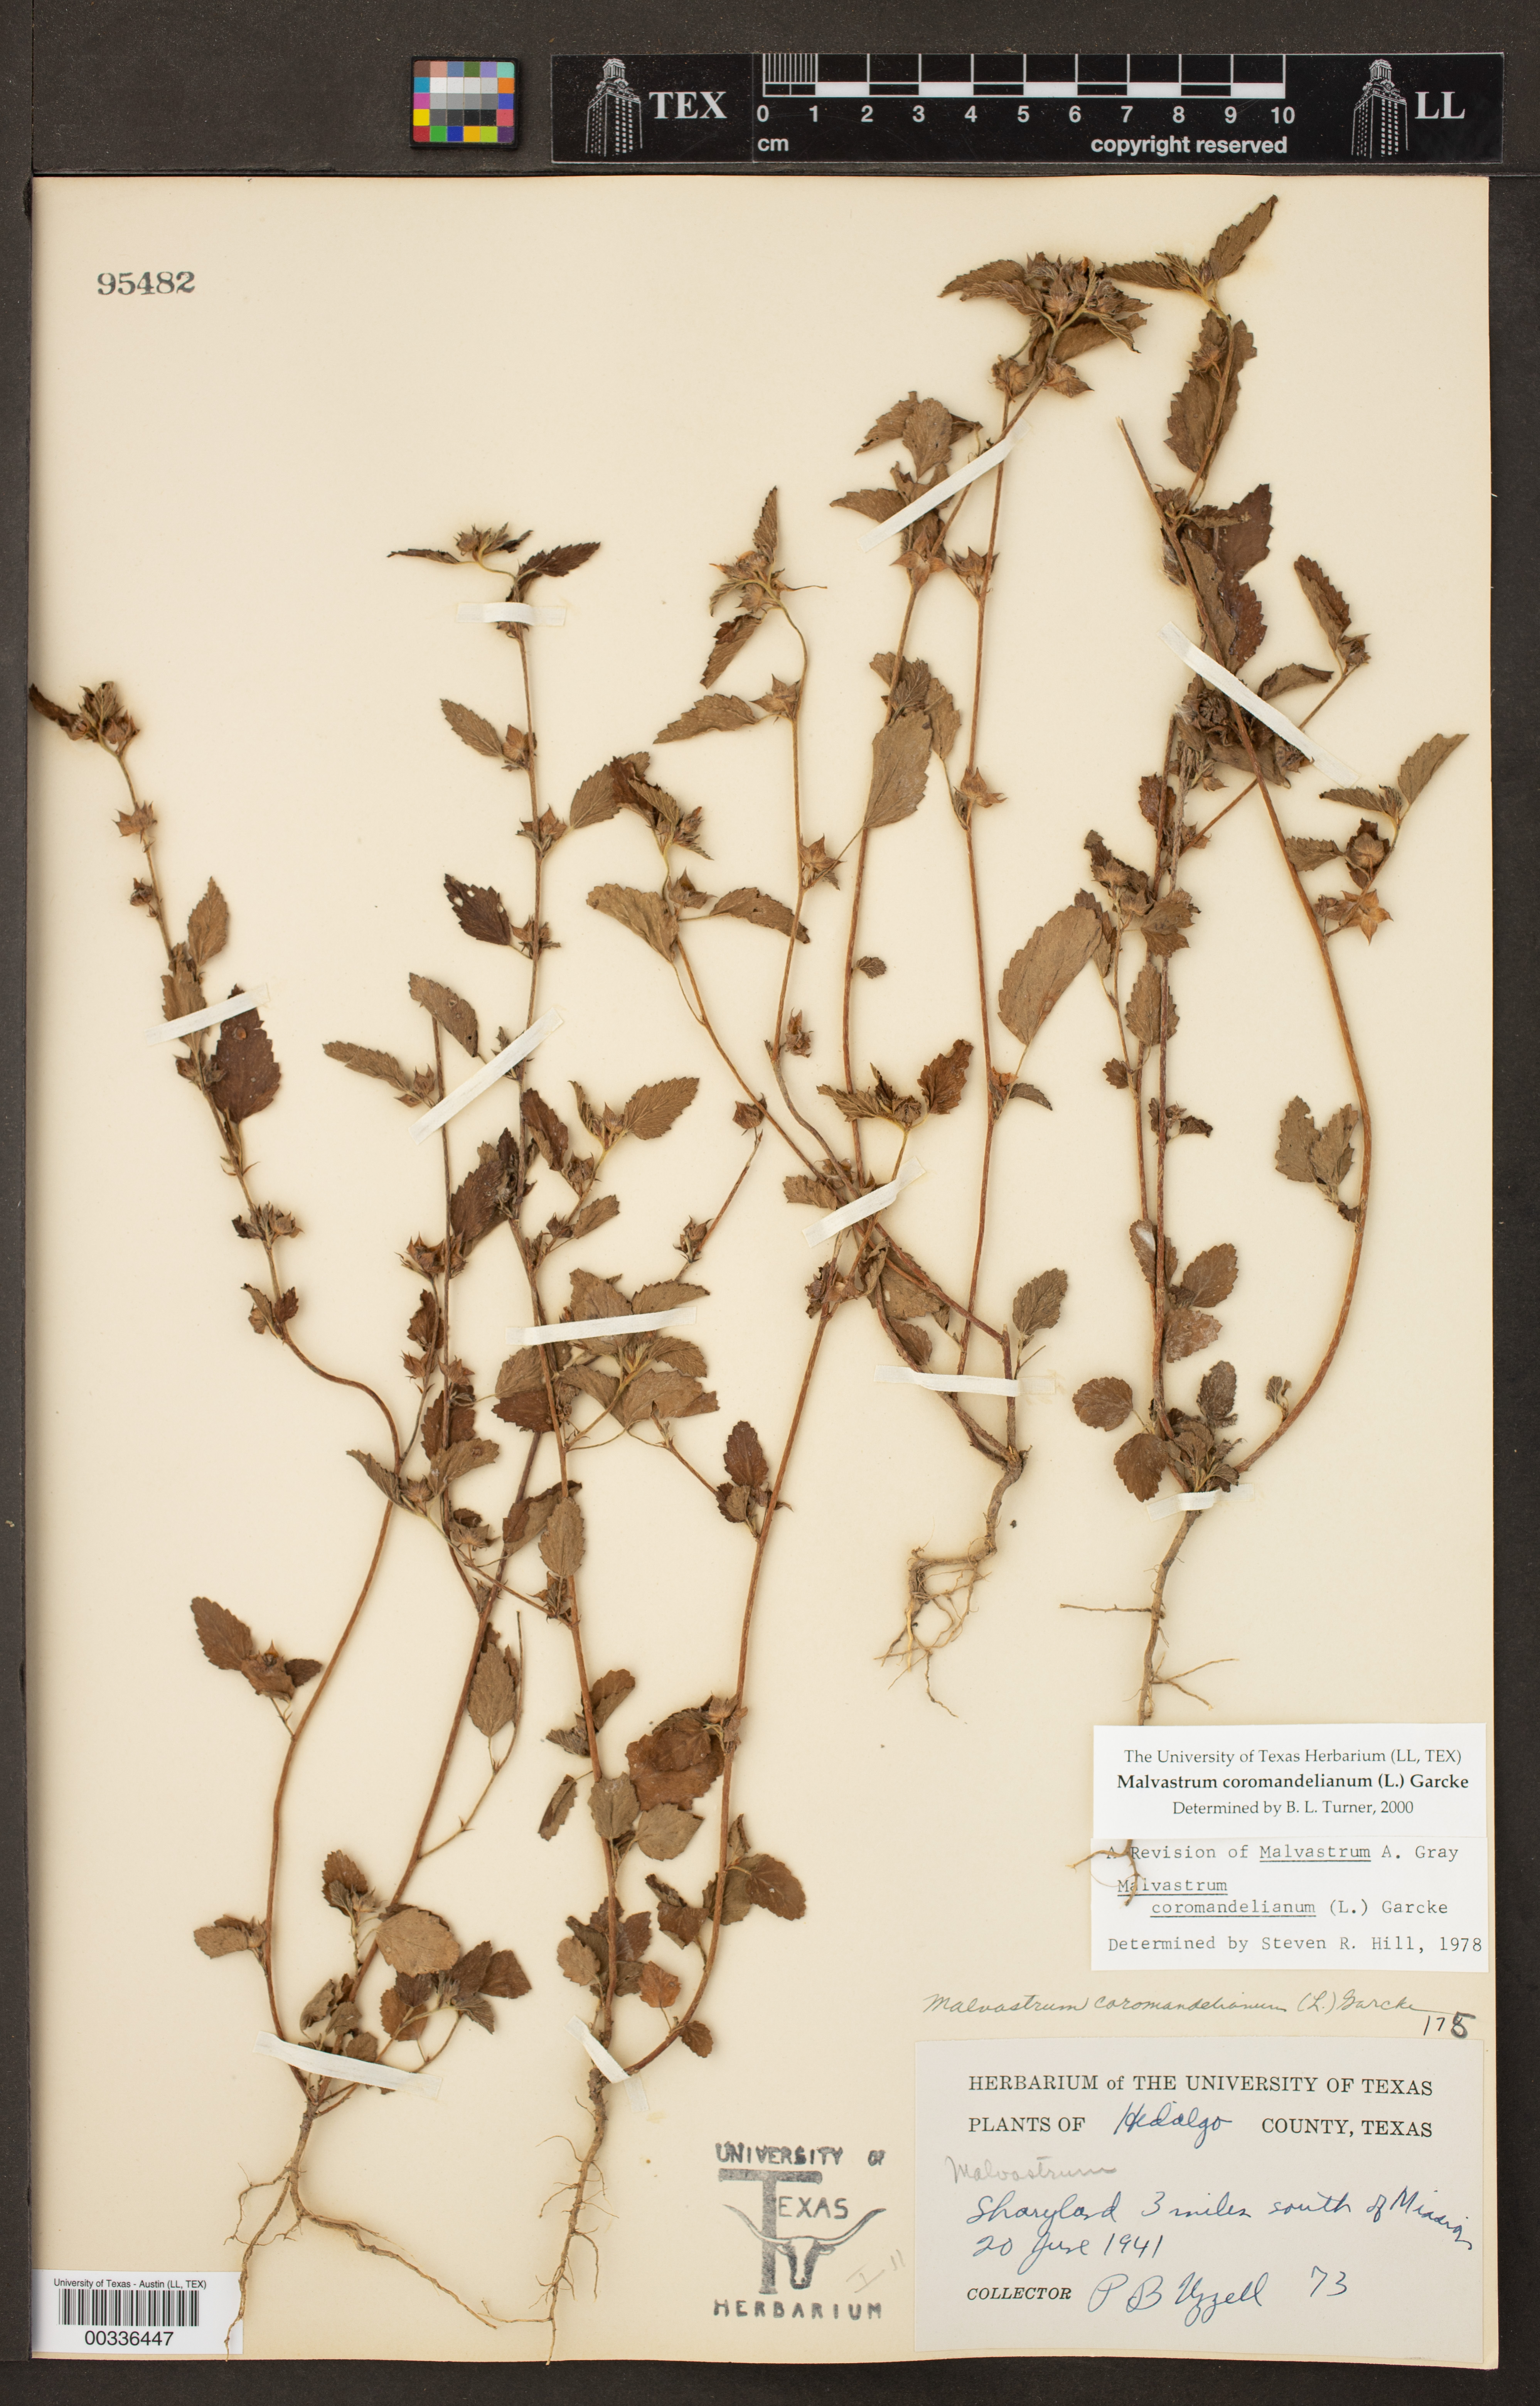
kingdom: Plantae
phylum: Tracheophyta
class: Magnoliopsida
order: Malvales
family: Malvaceae
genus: Malvastrum
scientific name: Malvastrum coromandelianum
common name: Threelobe false mallow
